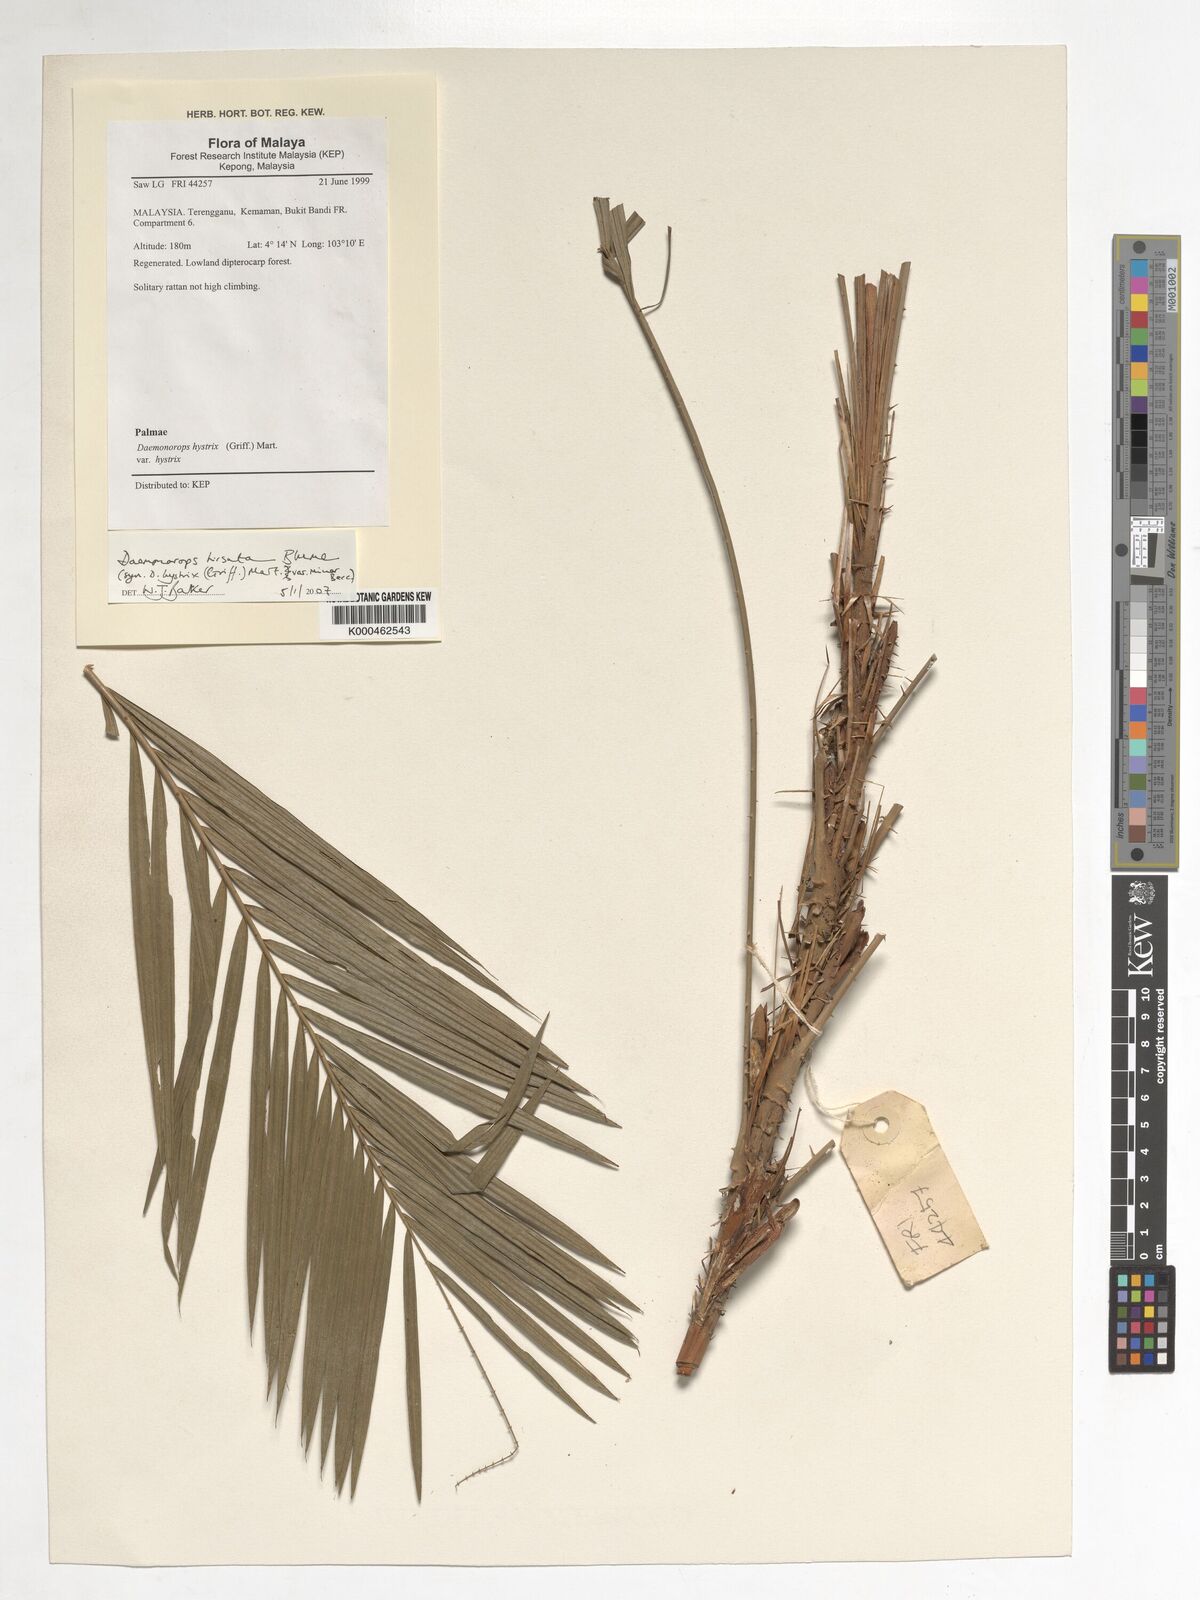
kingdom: Plantae
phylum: Tracheophyta
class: Liliopsida
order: Arecales
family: Arecaceae
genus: Calamus
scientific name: Calamus hirsutus
